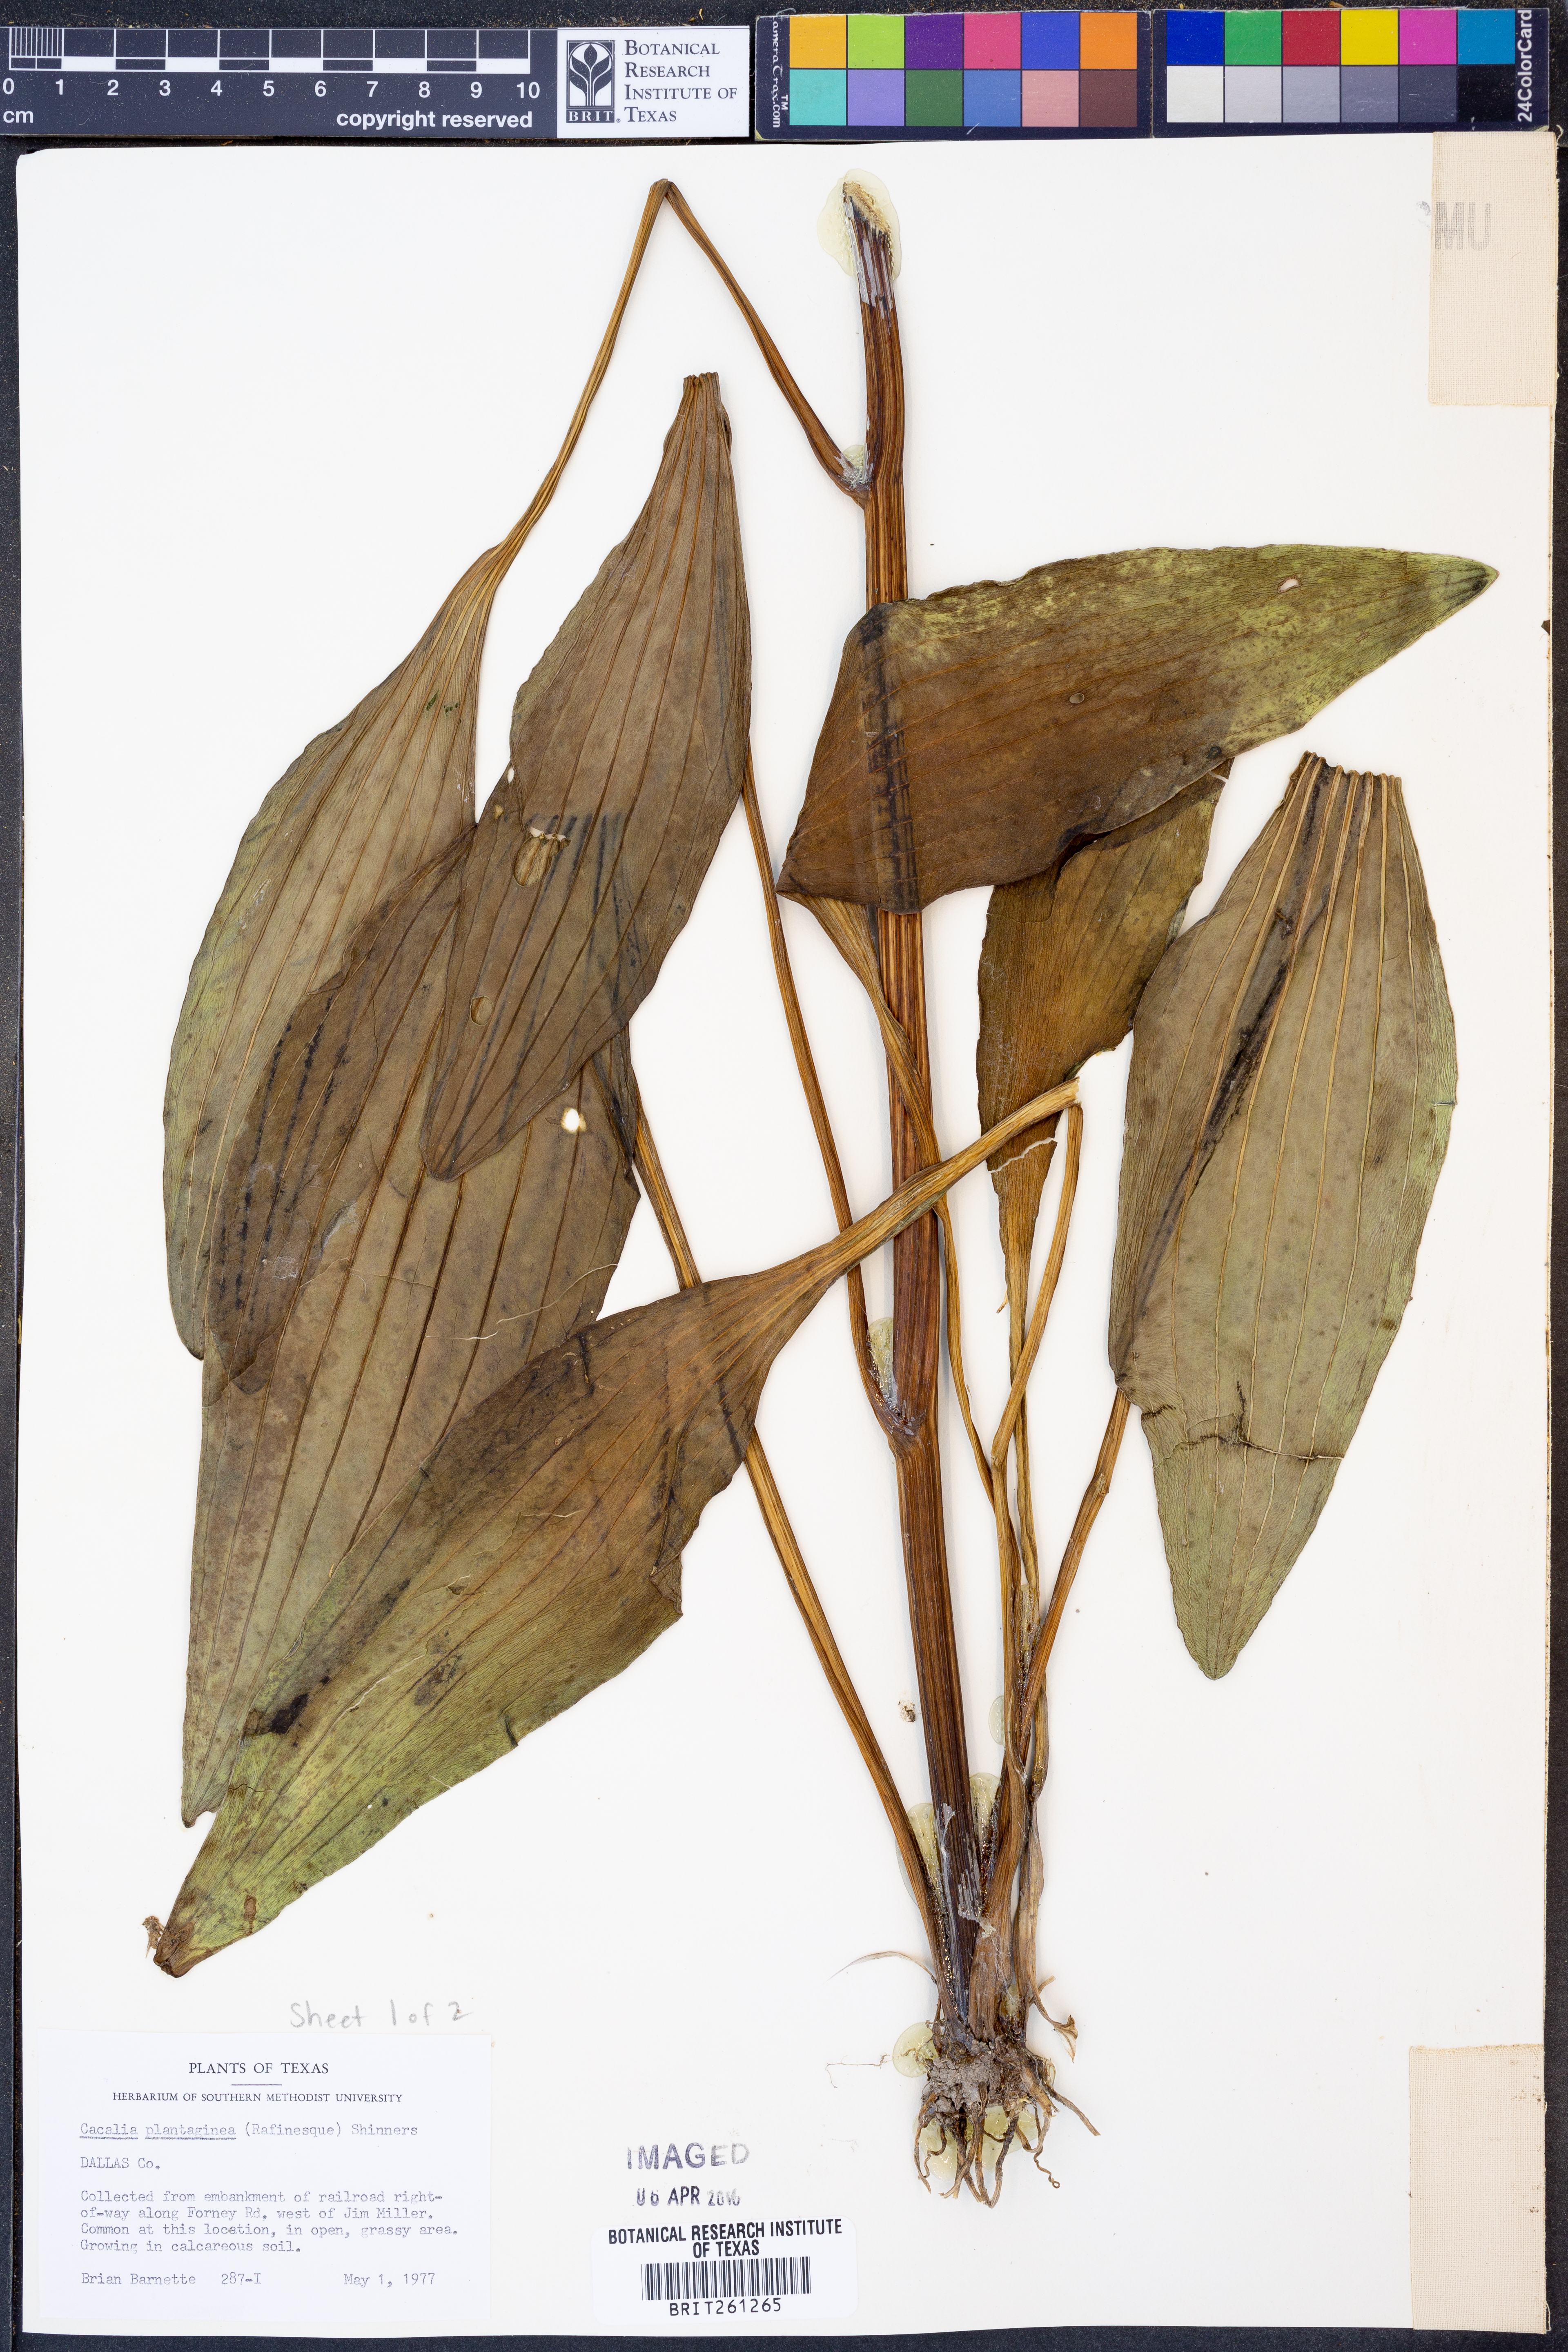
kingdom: Plantae
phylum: Tracheophyta
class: Magnoliopsida
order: Asterales
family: Asteraceae
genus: Arnoglossum
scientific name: Arnoglossum plantagineum
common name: Groove-stemmed indian-plantain
